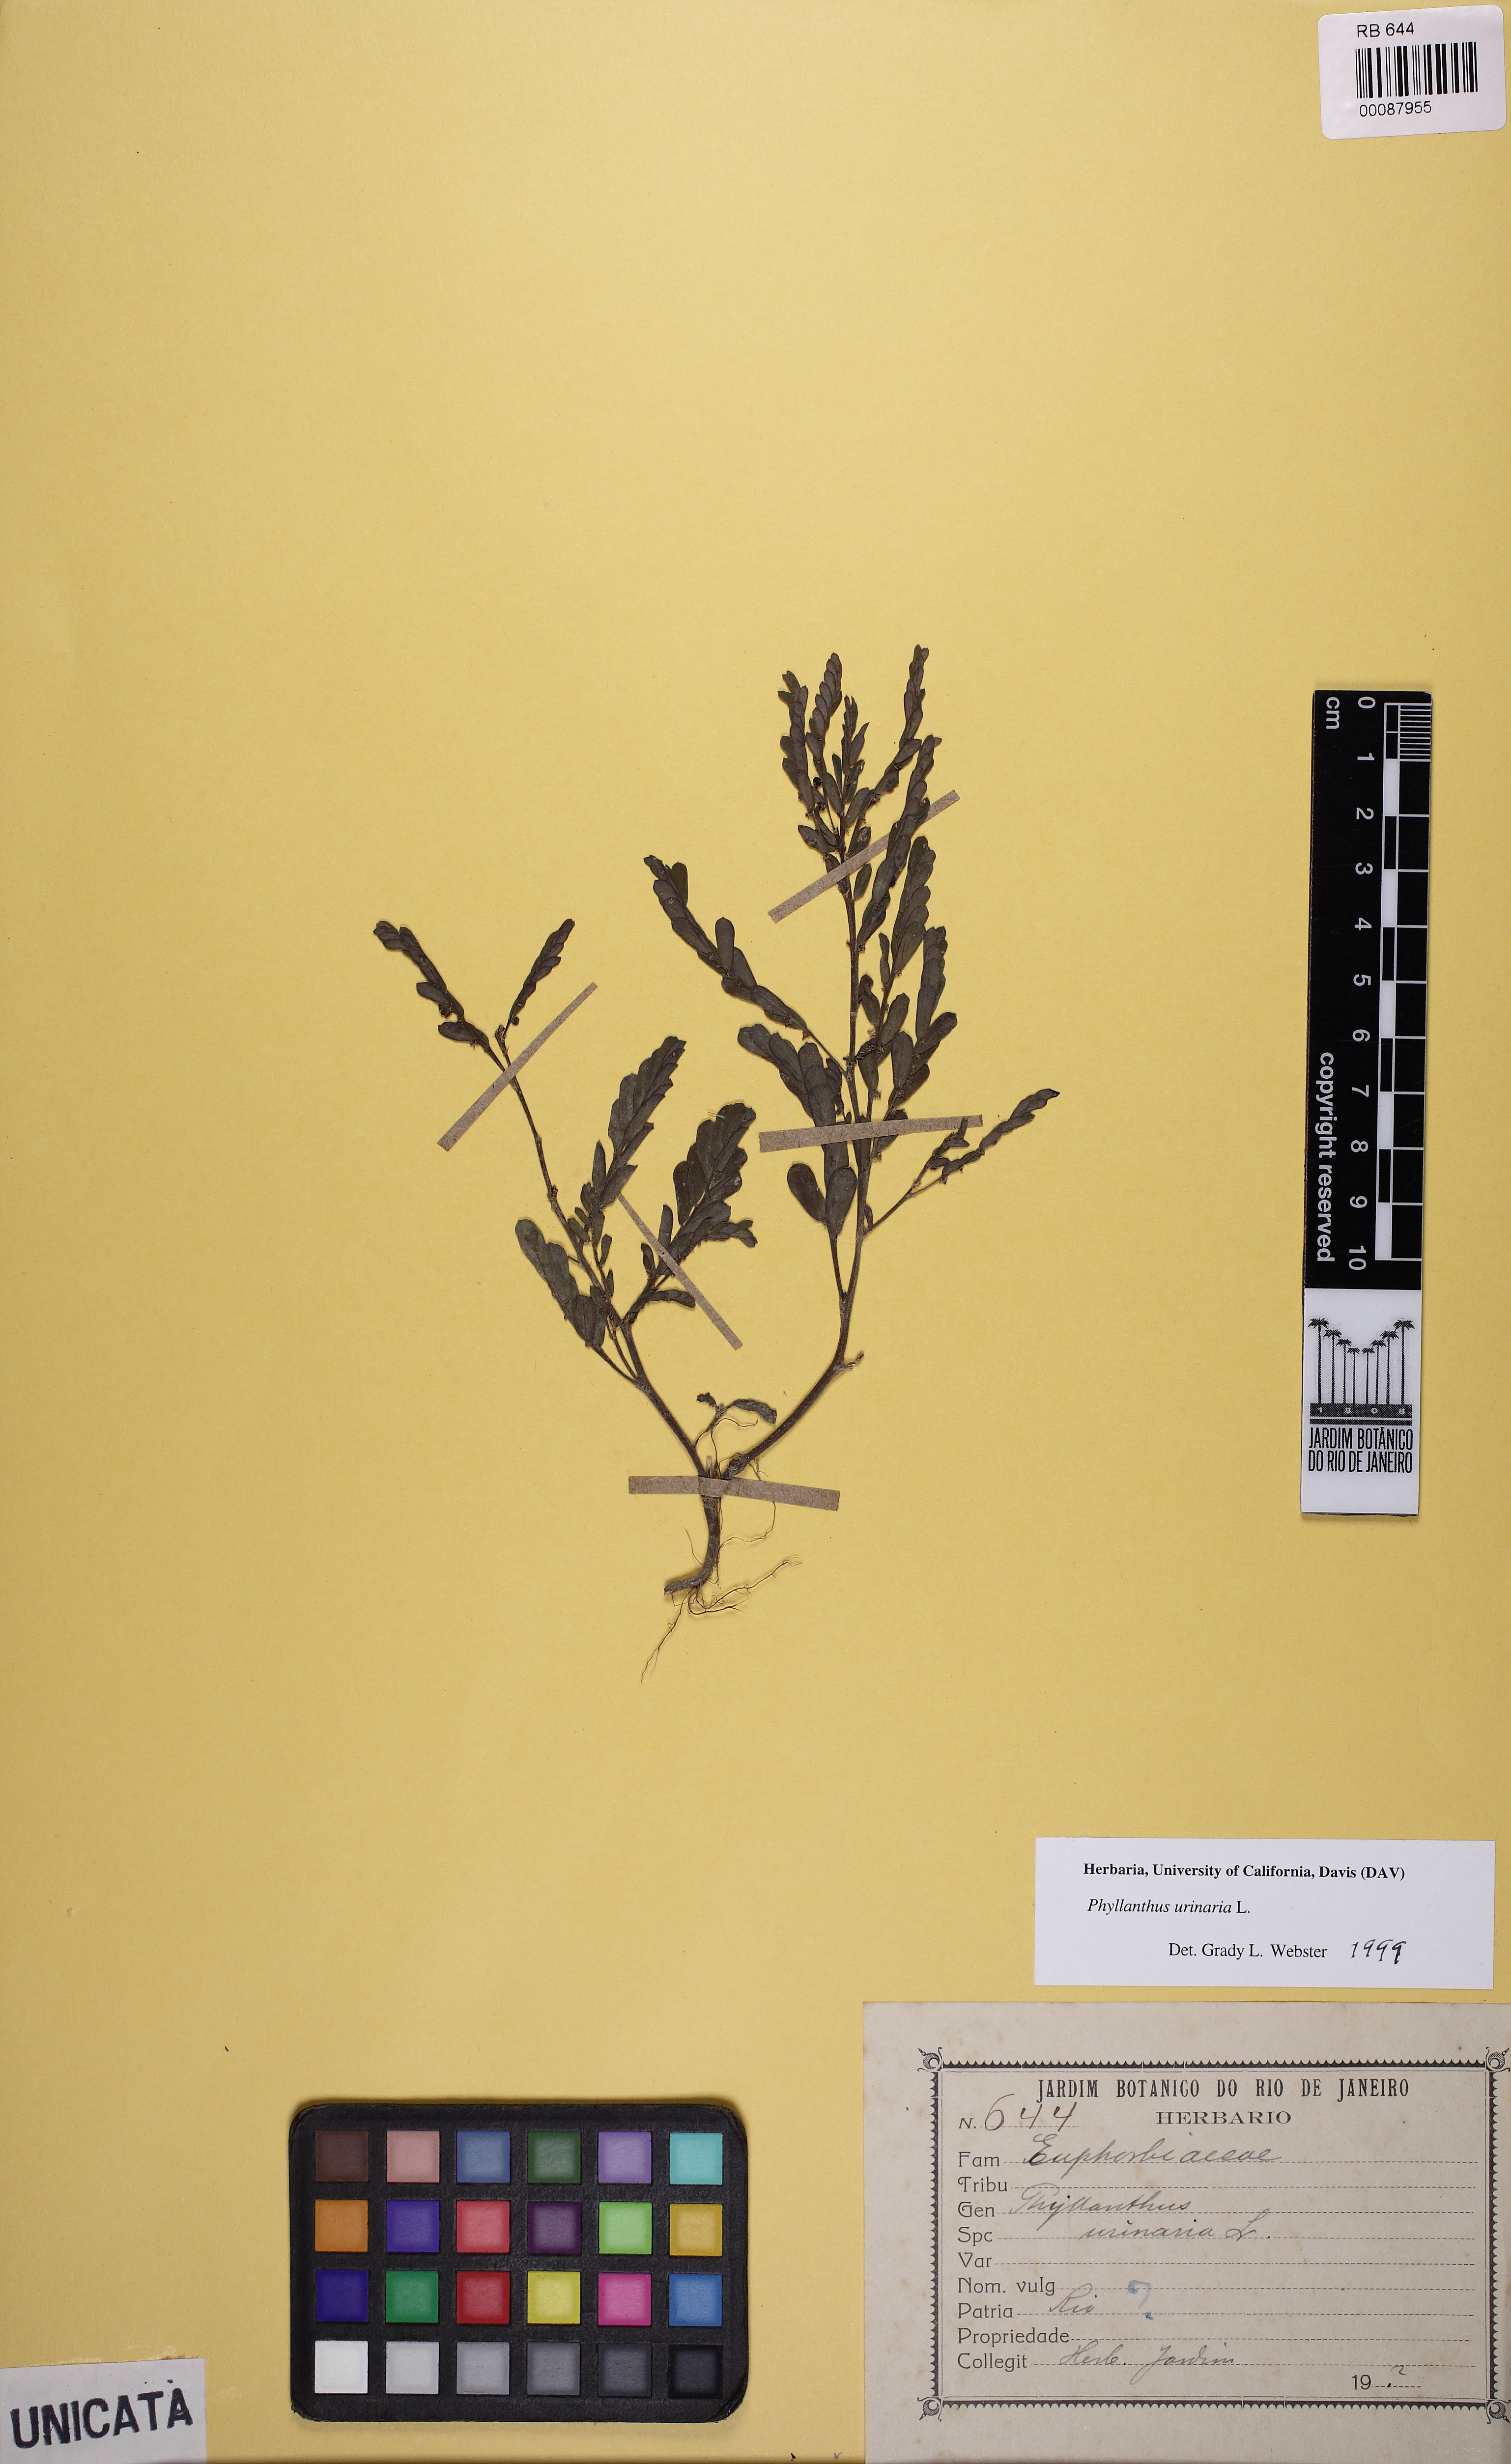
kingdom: Plantae
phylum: Tracheophyta
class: Magnoliopsida
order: Malpighiales
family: Phyllanthaceae
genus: Phyllanthus
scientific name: Phyllanthus urinaria
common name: Chamber bitter
